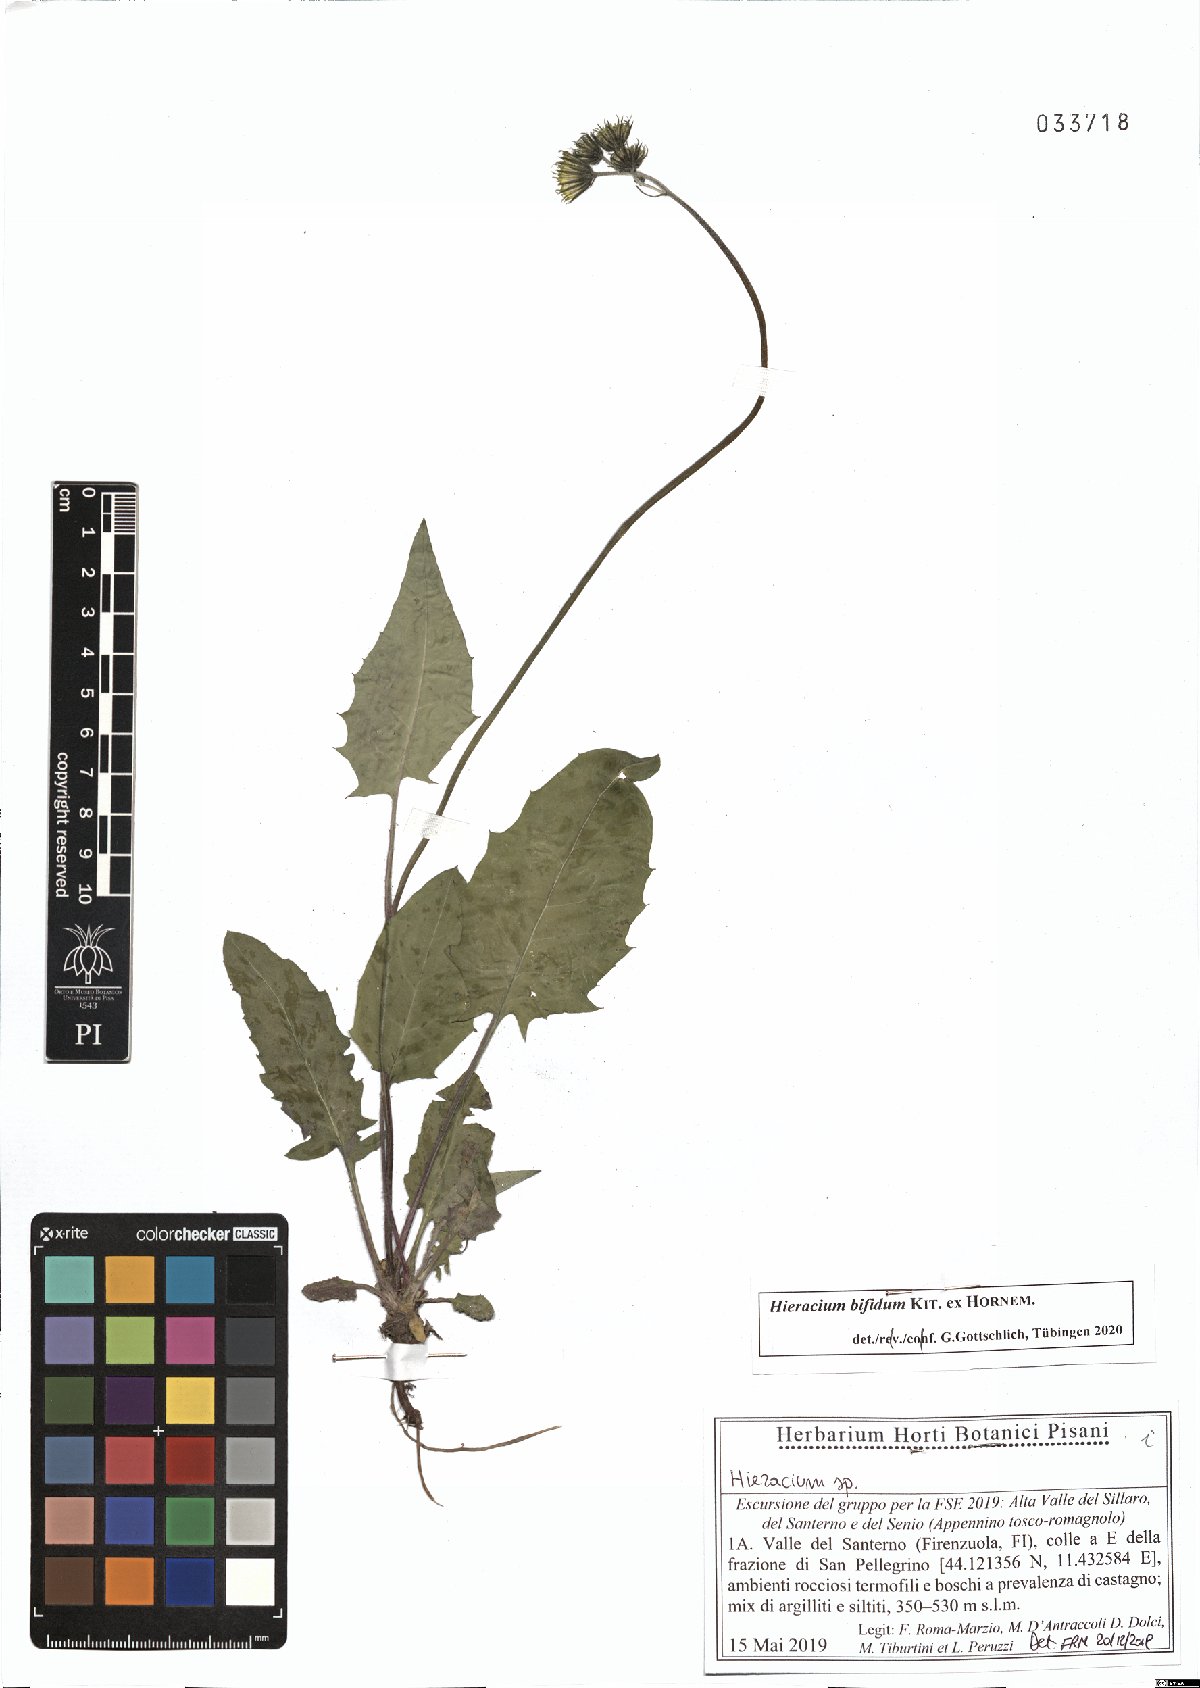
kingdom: Plantae
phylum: Tracheophyta
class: Magnoliopsida
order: Asterales
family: Asteraceae
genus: Hieracium
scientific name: Hieracium bifidum
